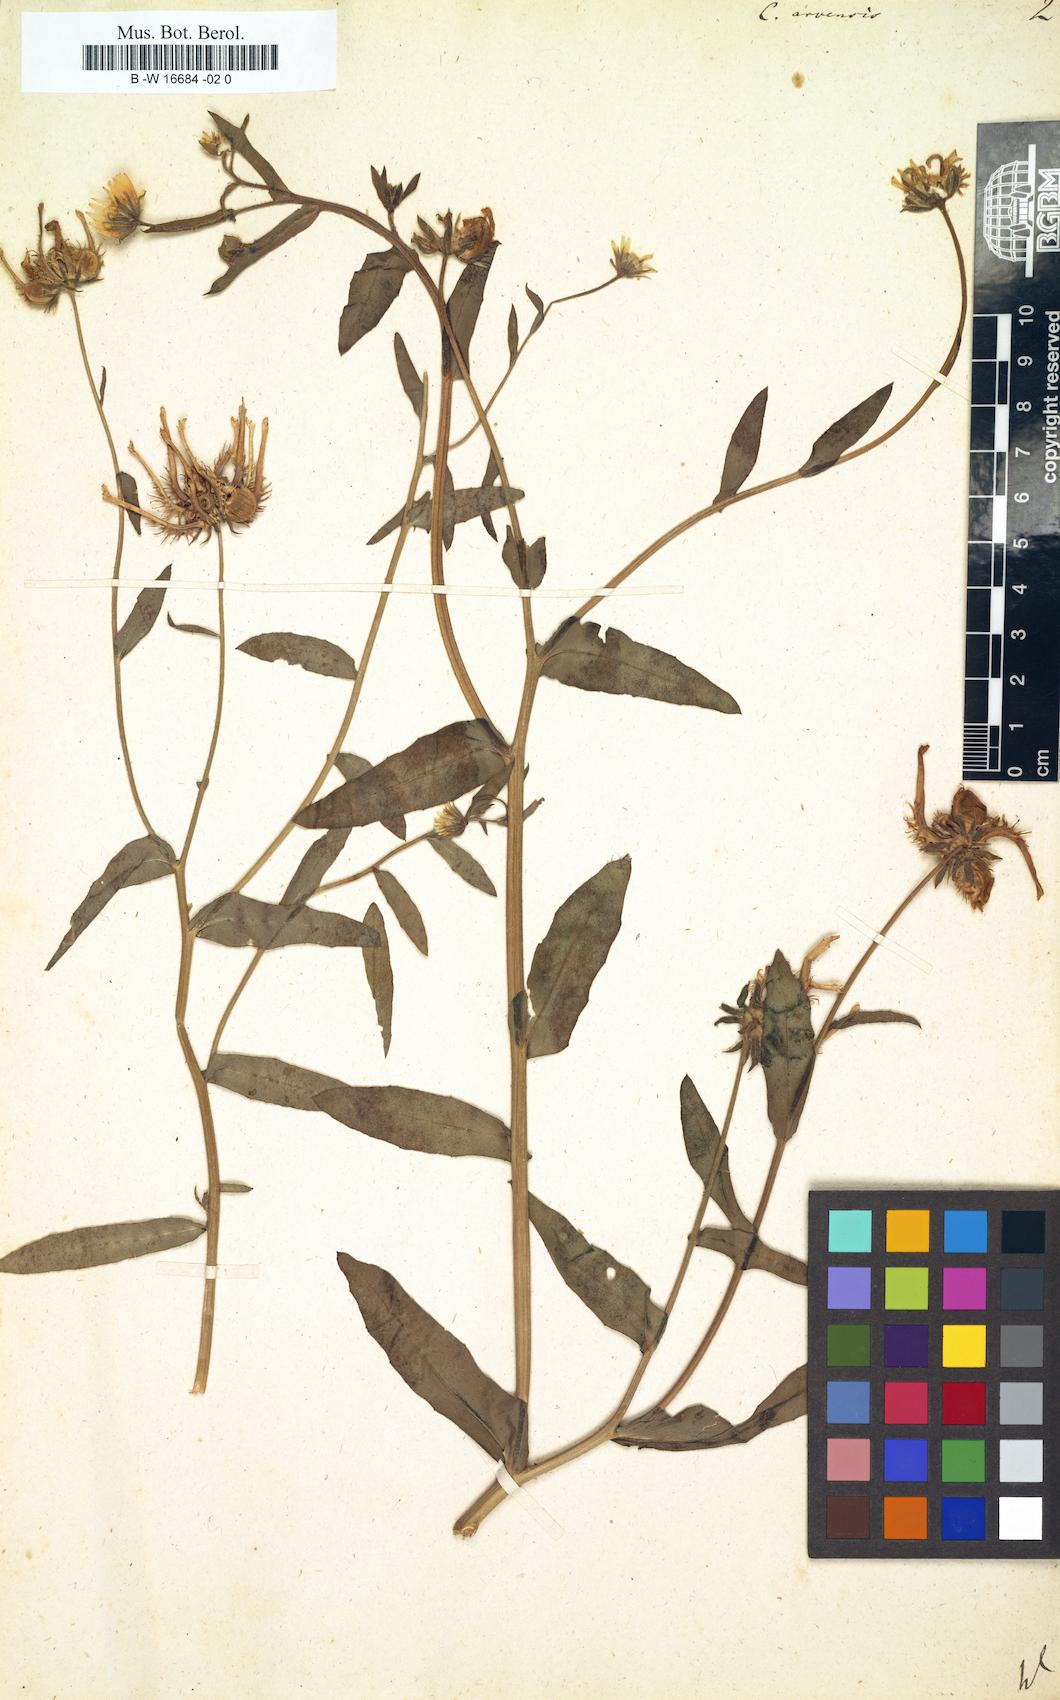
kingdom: Plantae
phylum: Tracheophyta
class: Magnoliopsida
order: Asterales
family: Asteraceae
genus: Calendula
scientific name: Calendula arvensis
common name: Field marigold
